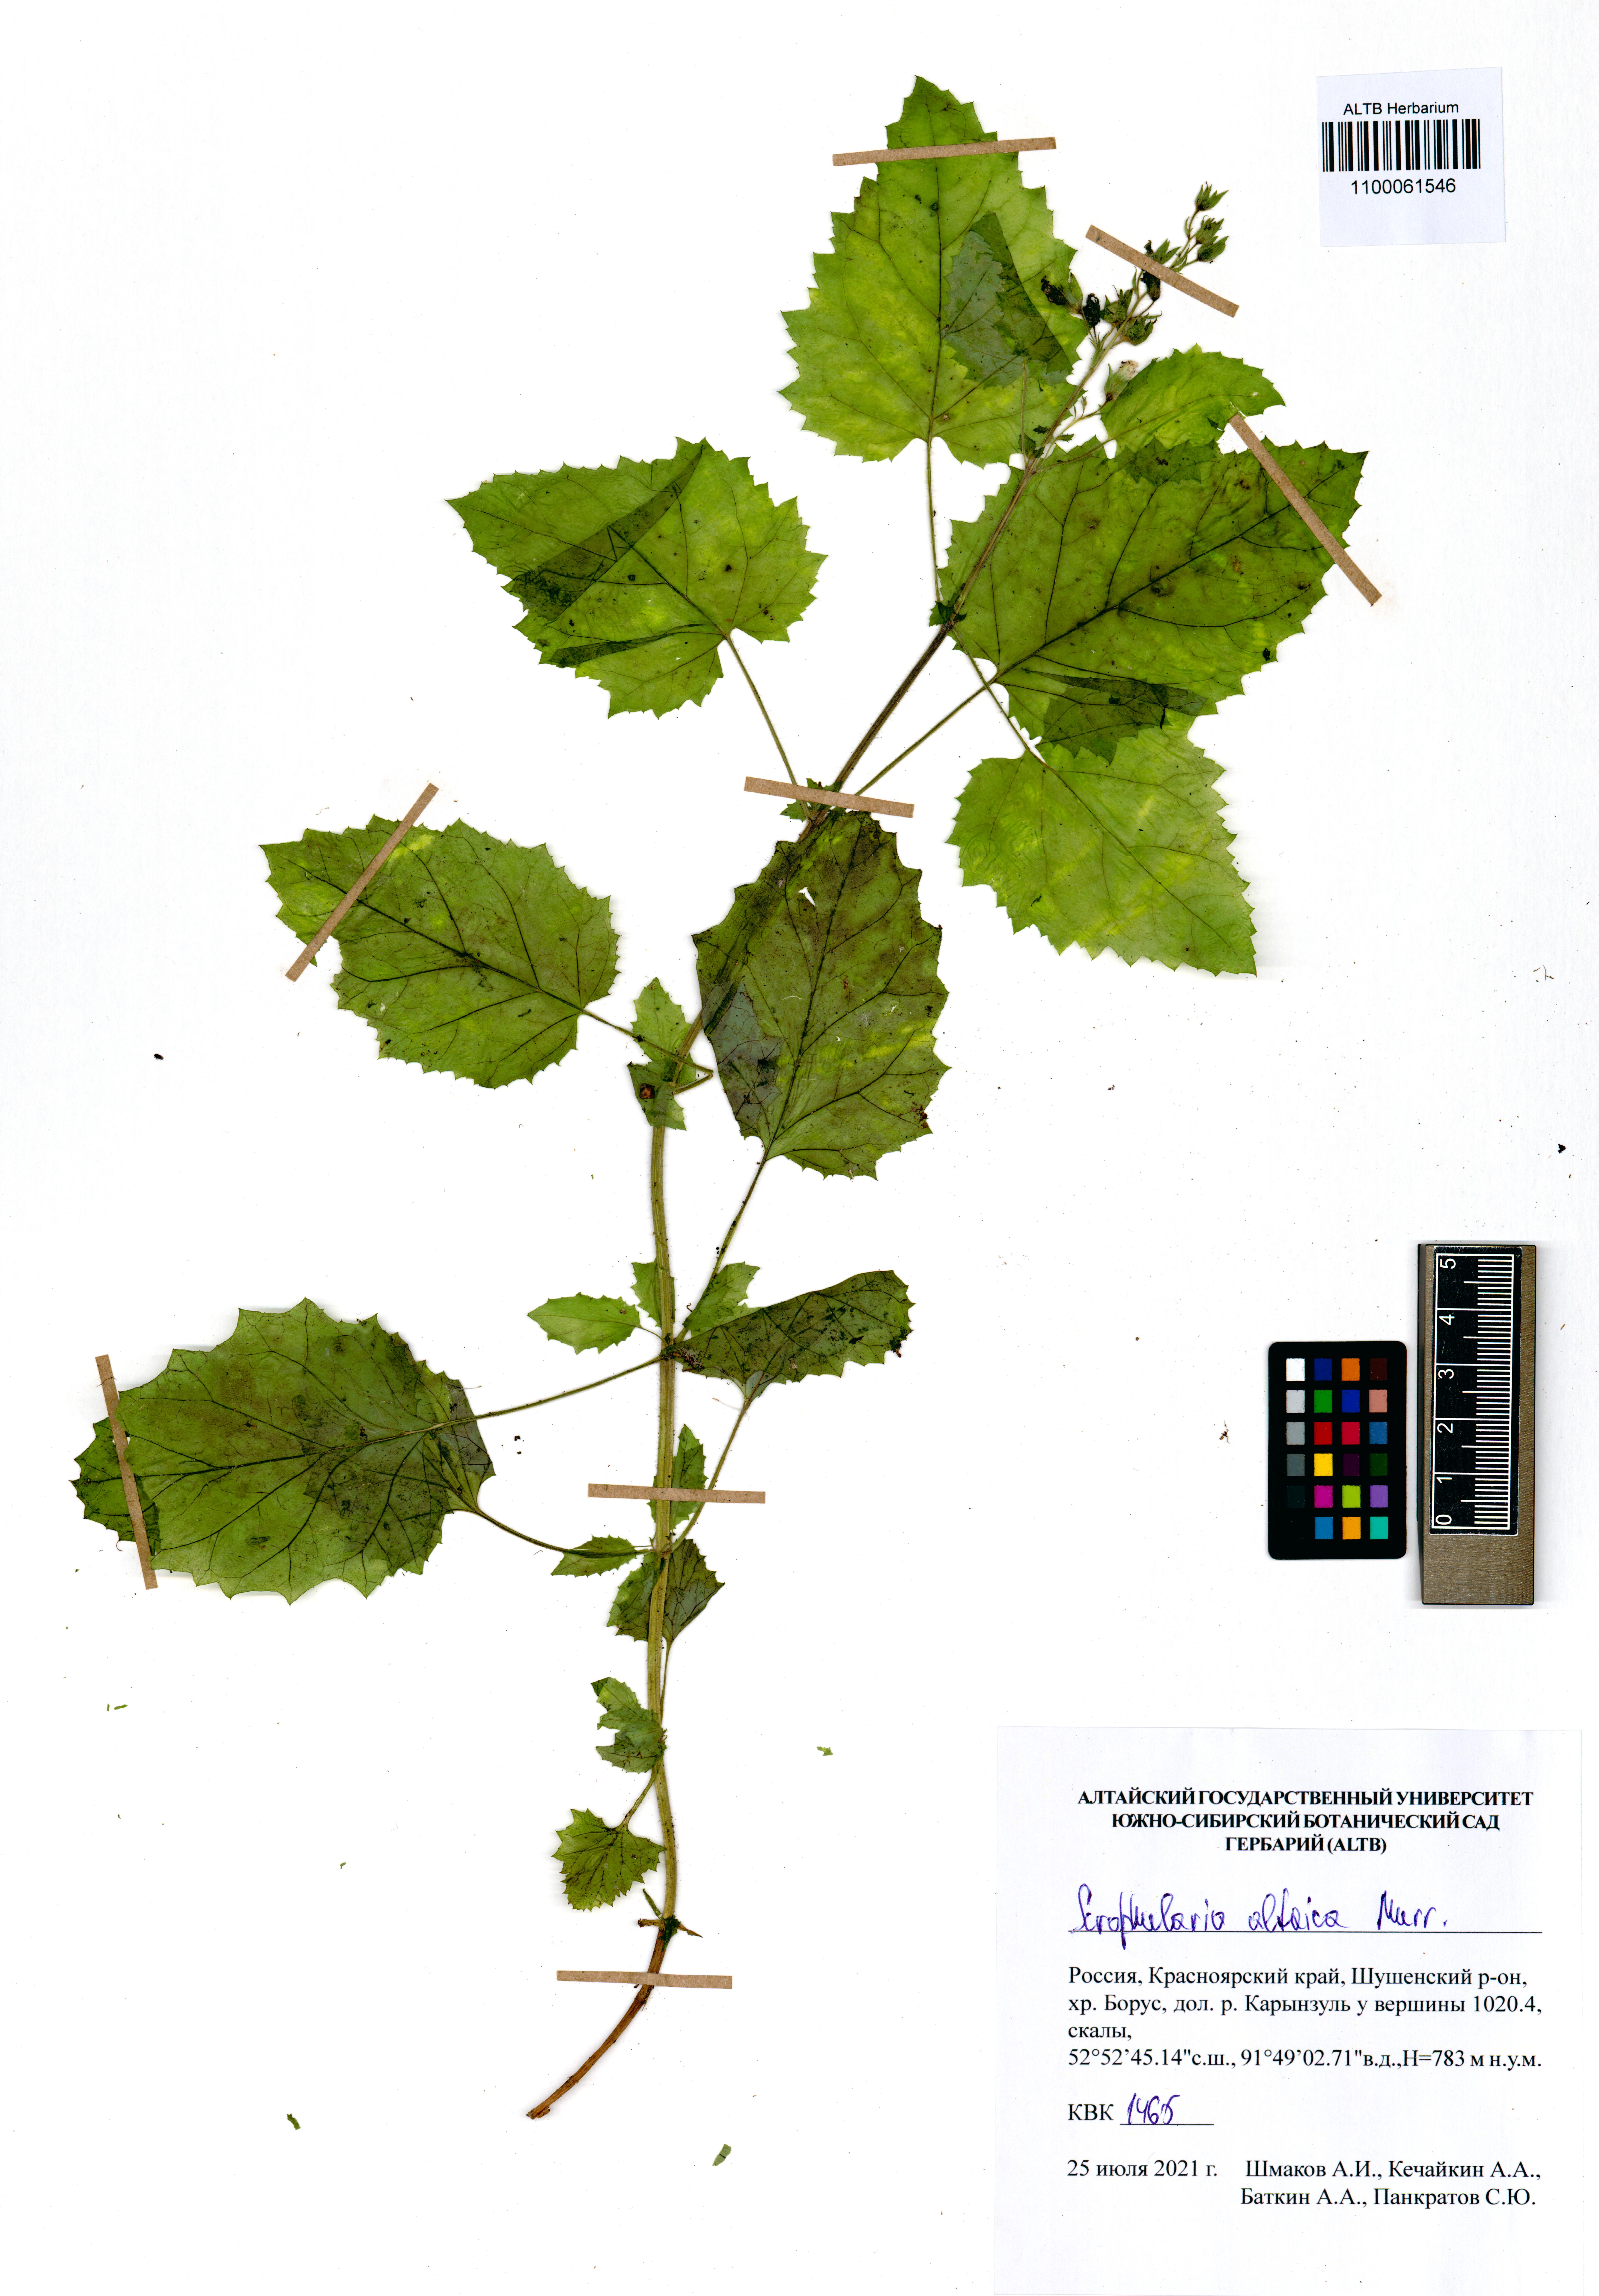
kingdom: Plantae
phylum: Tracheophyta
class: Magnoliopsida
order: Lamiales
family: Scrophulariaceae
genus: Scrophularia
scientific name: Scrophularia altaica
